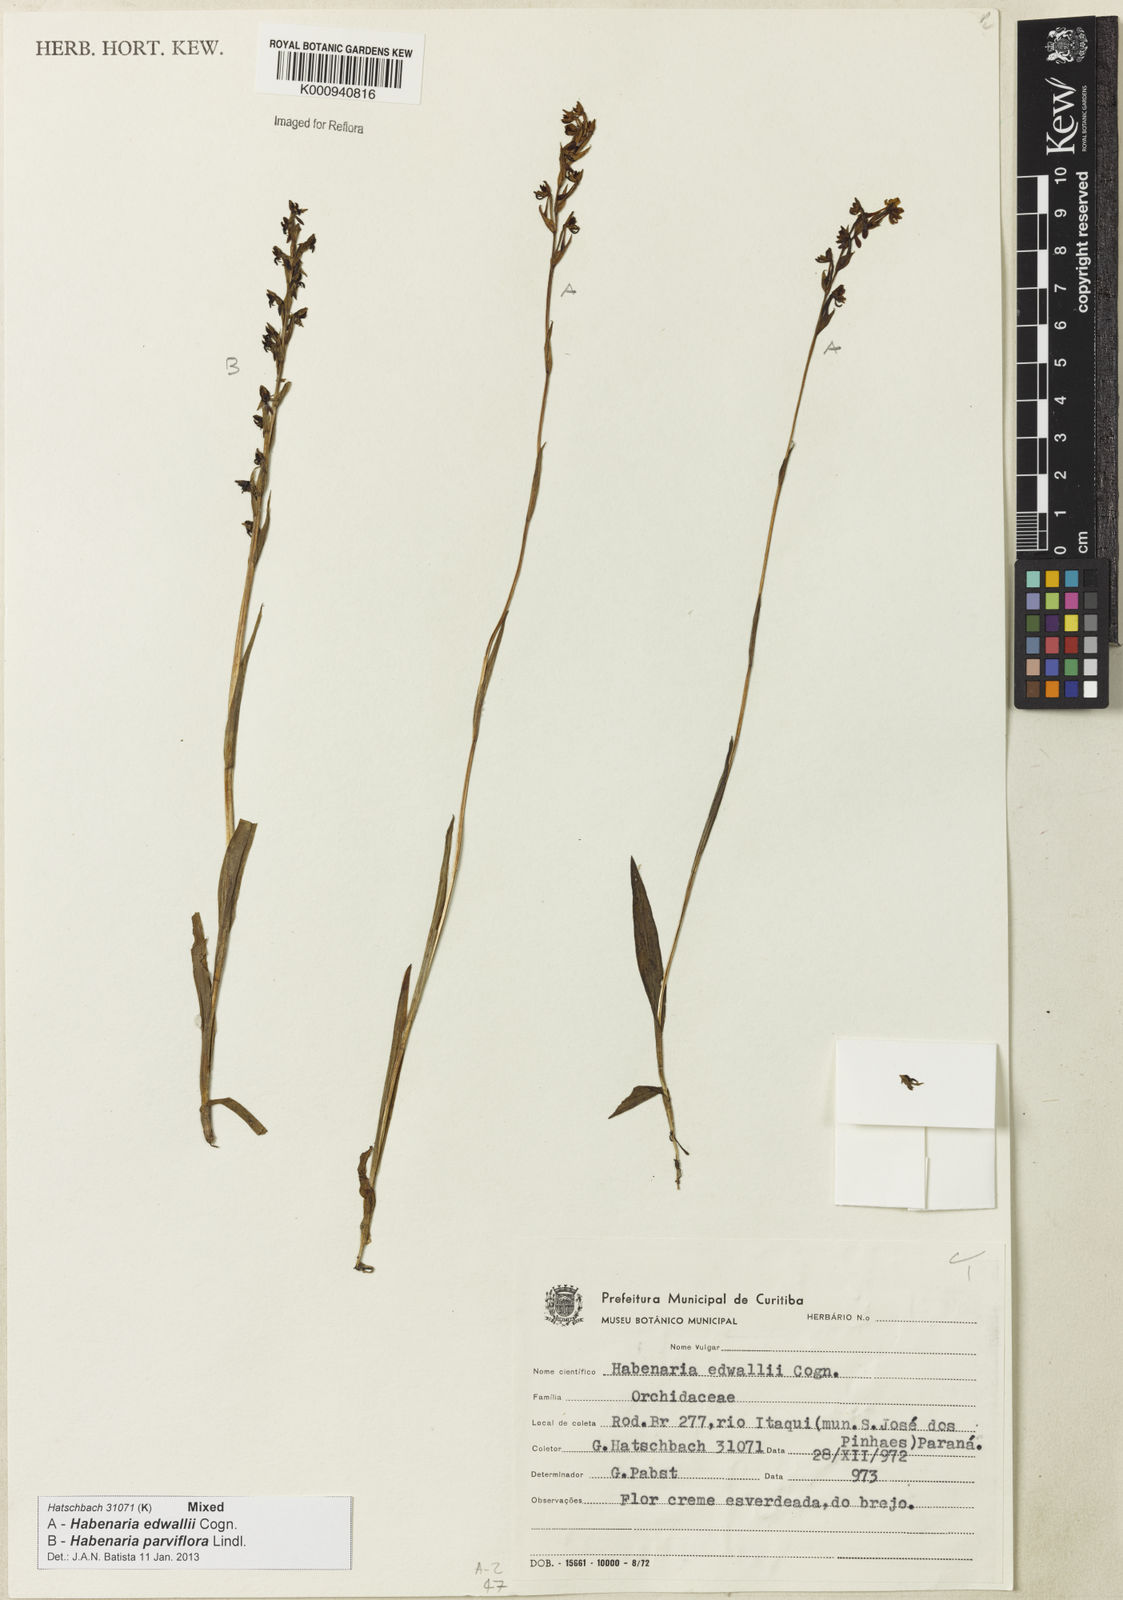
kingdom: Plantae
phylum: Tracheophyta
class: Liliopsida
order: Asparagales
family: Orchidaceae
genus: Habenaria
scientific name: Habenaria edwallii
